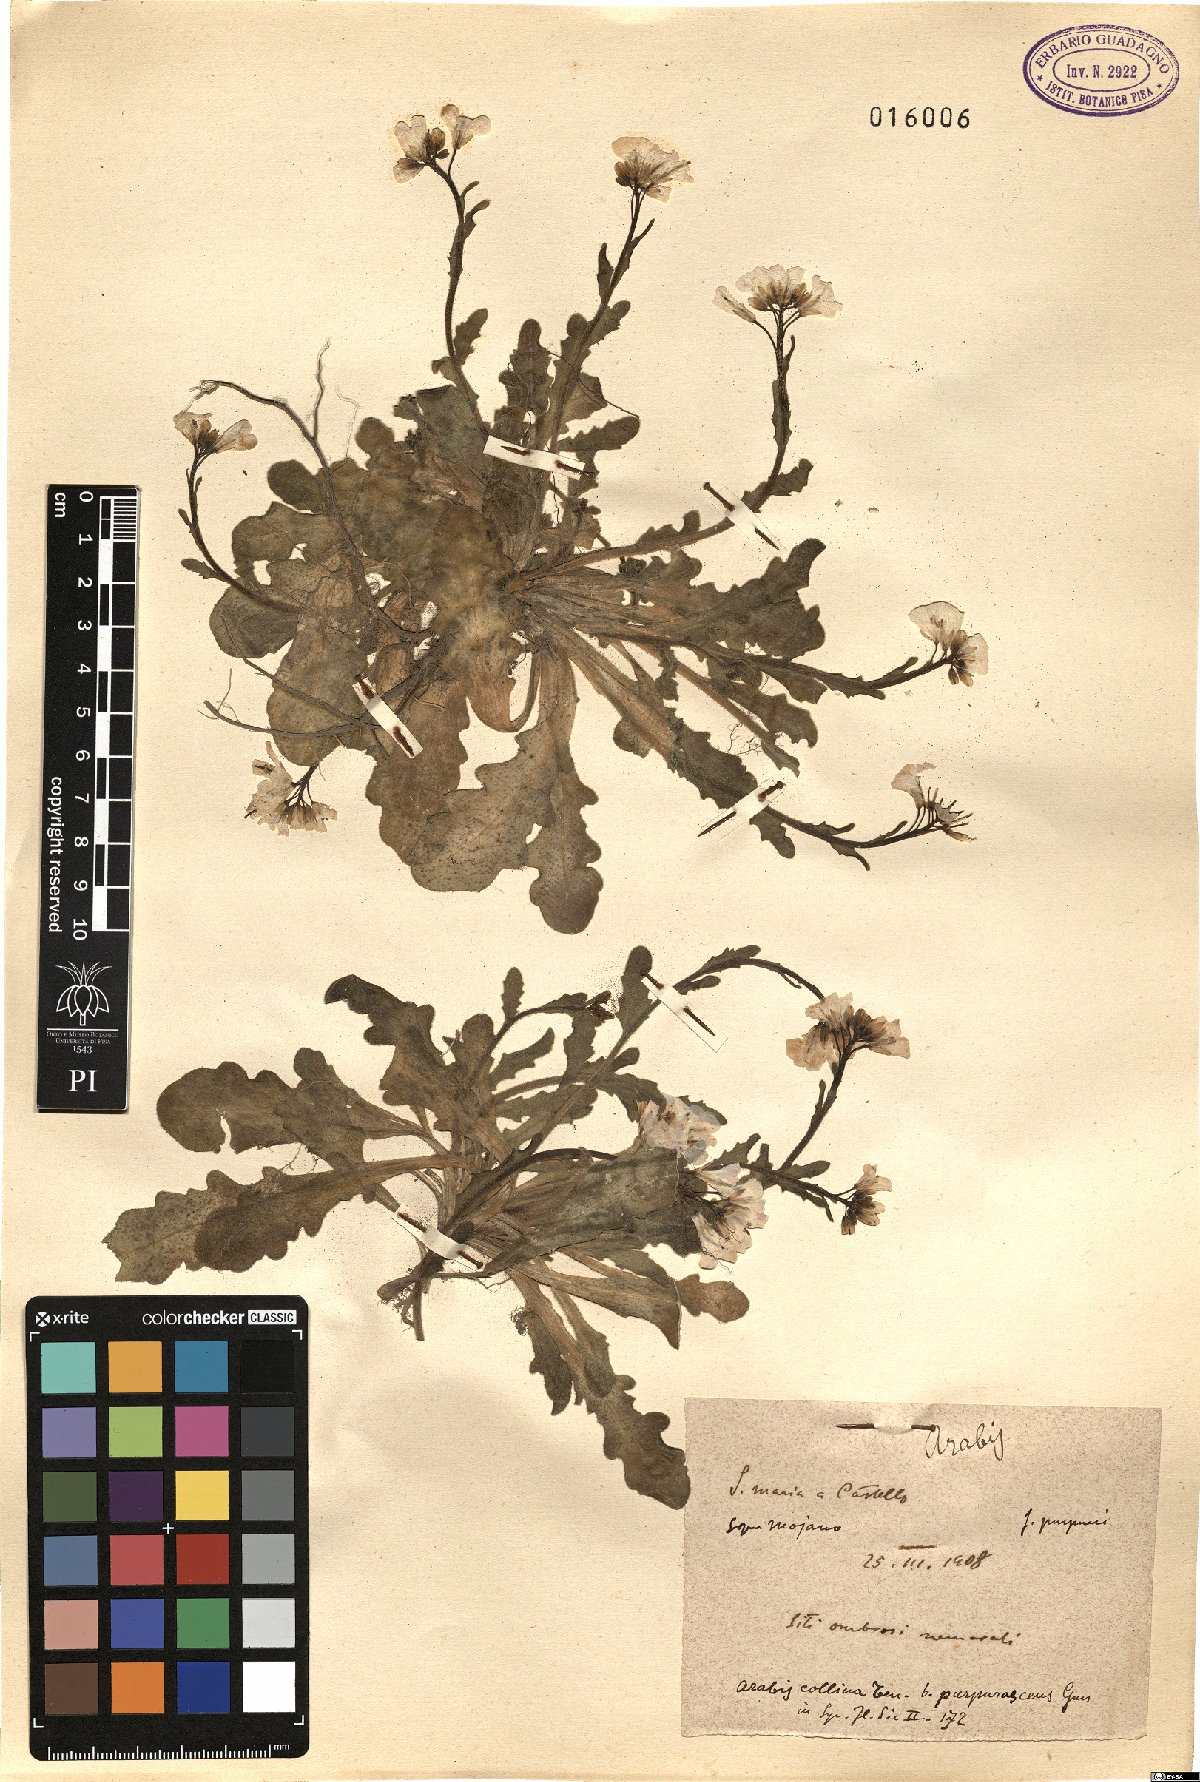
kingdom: Plantae
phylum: Tracheophyta
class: Magnoliopsida
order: Brassicales
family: Brassicaceae
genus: Arabis
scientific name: Arabis collina
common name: Rosy cress
